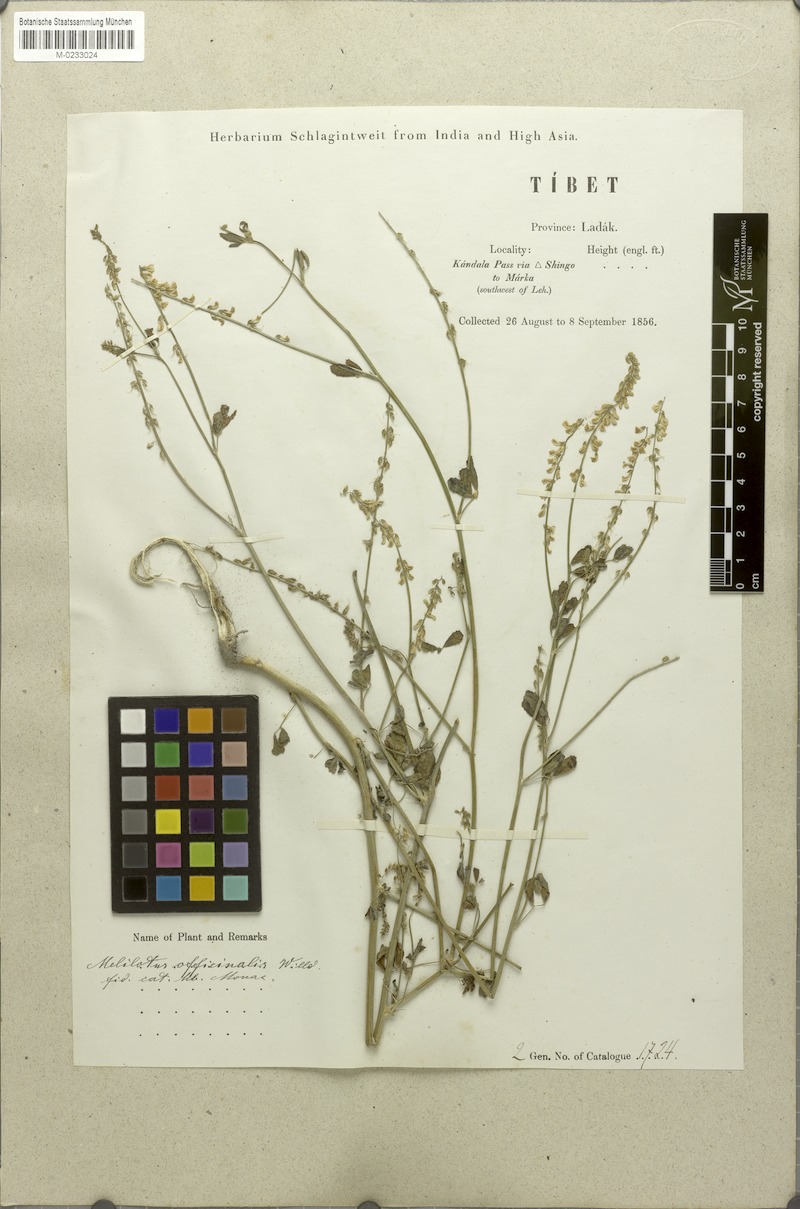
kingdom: Plantae
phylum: Tracheophyta
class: Magnoliopsida
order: Fabales
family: Fabaceae
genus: Melilotus
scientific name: Melilotus officinalis
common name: Sweetclover
